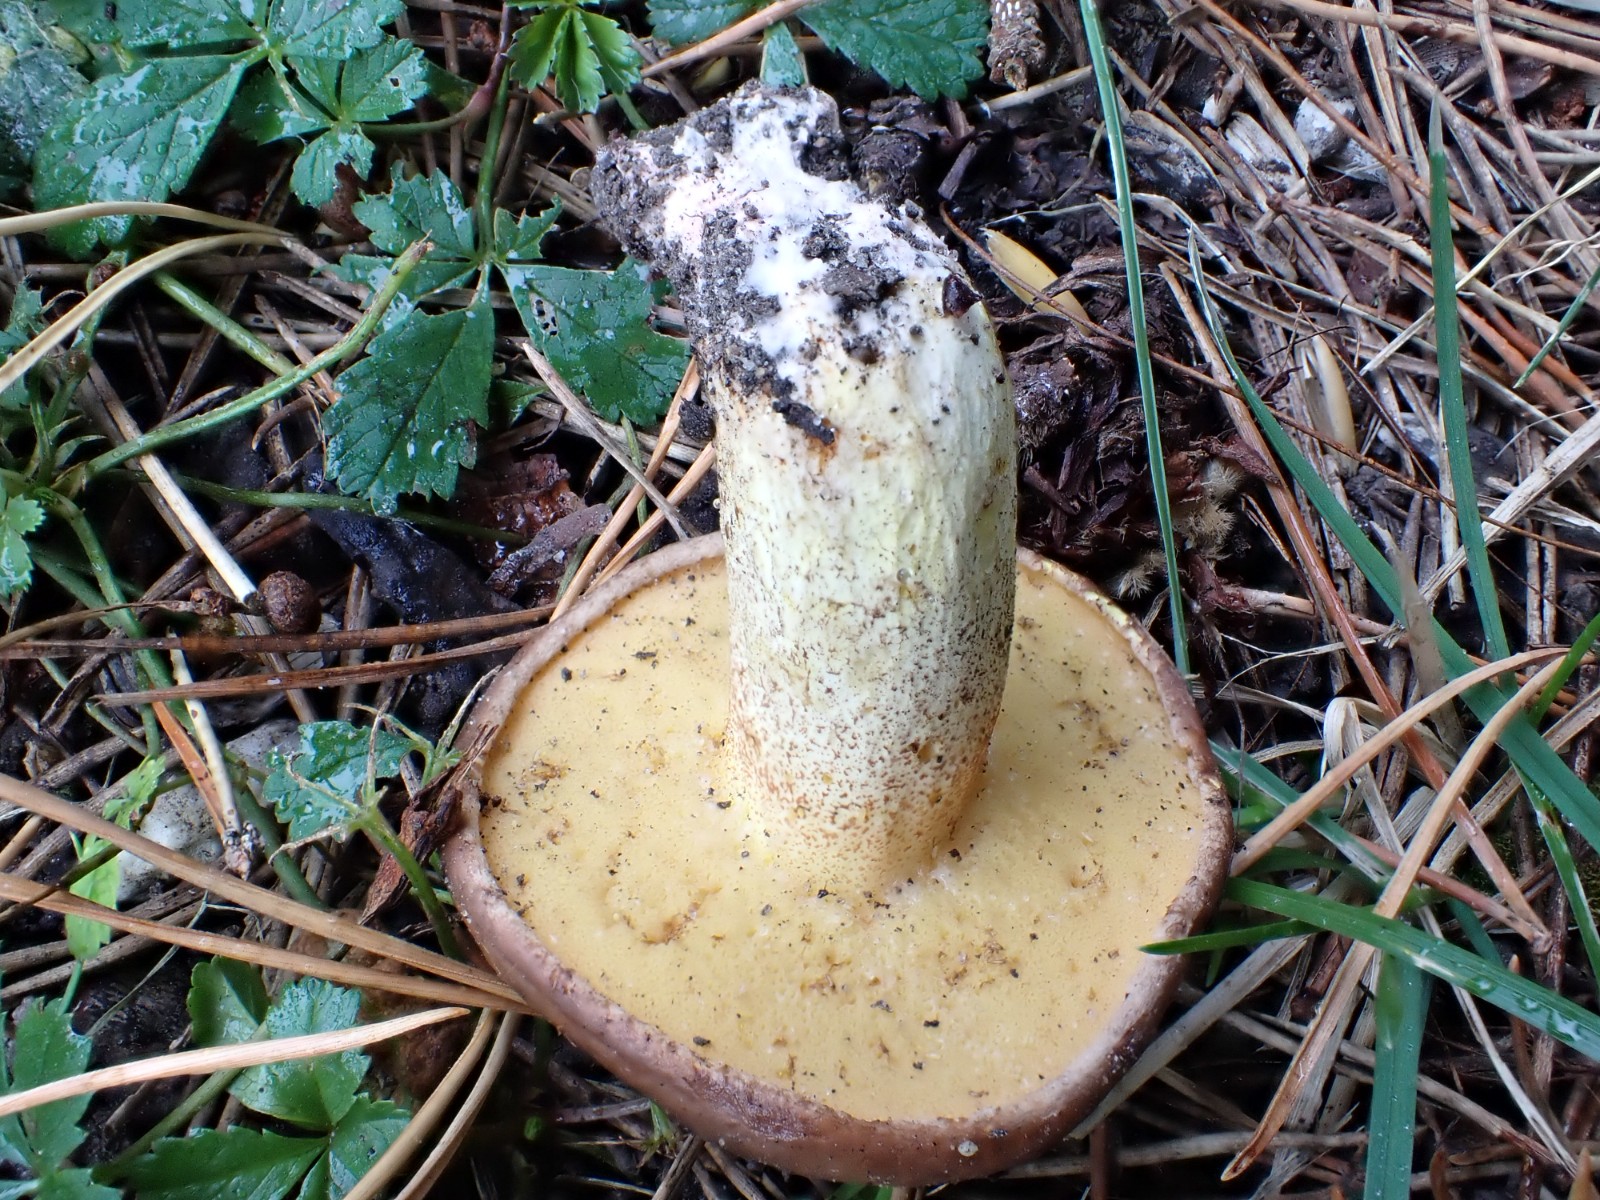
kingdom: Fungi
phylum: Basidiomycota
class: Agaricomycetes
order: Boletales
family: Suillaceae
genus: Suillus
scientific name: Suillus collinitus
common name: rosafodet slimrørhat
